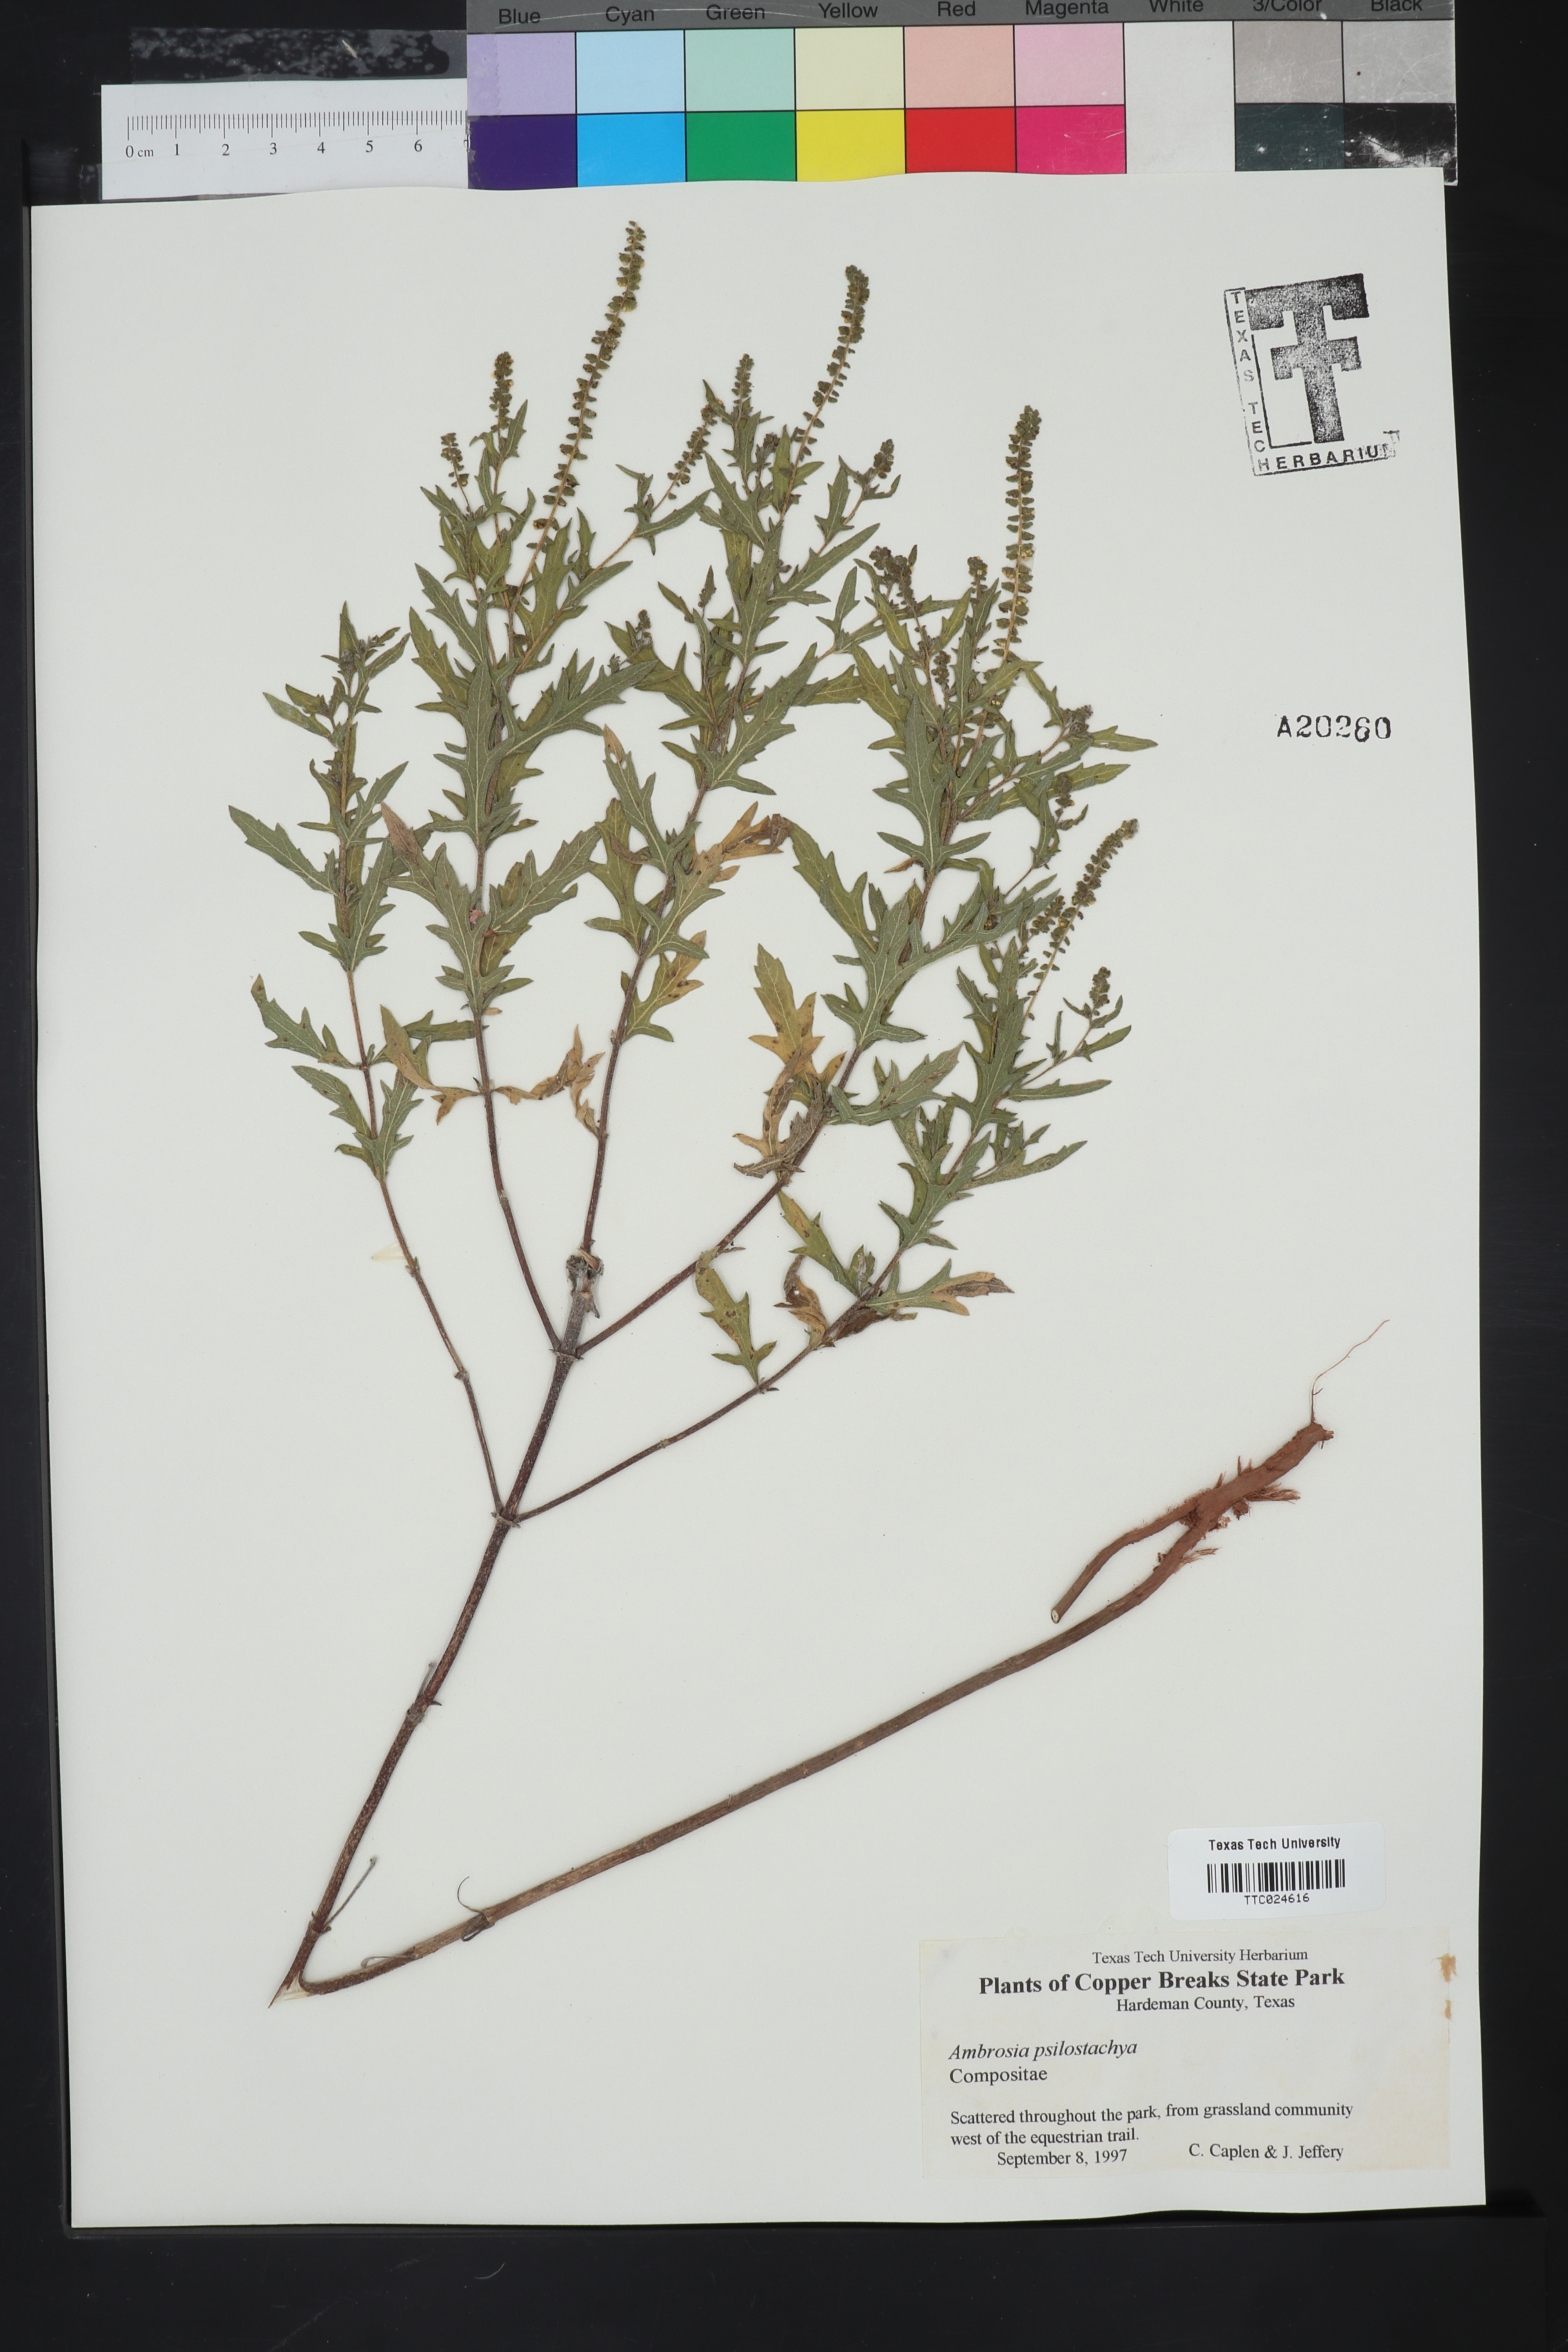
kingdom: Plantae
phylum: Tracheophyta
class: Magnoliopsida
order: Asterales
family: Asteraceae
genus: Ambrosia
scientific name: Ambrosia psilostachya
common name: Perennial ragweed
